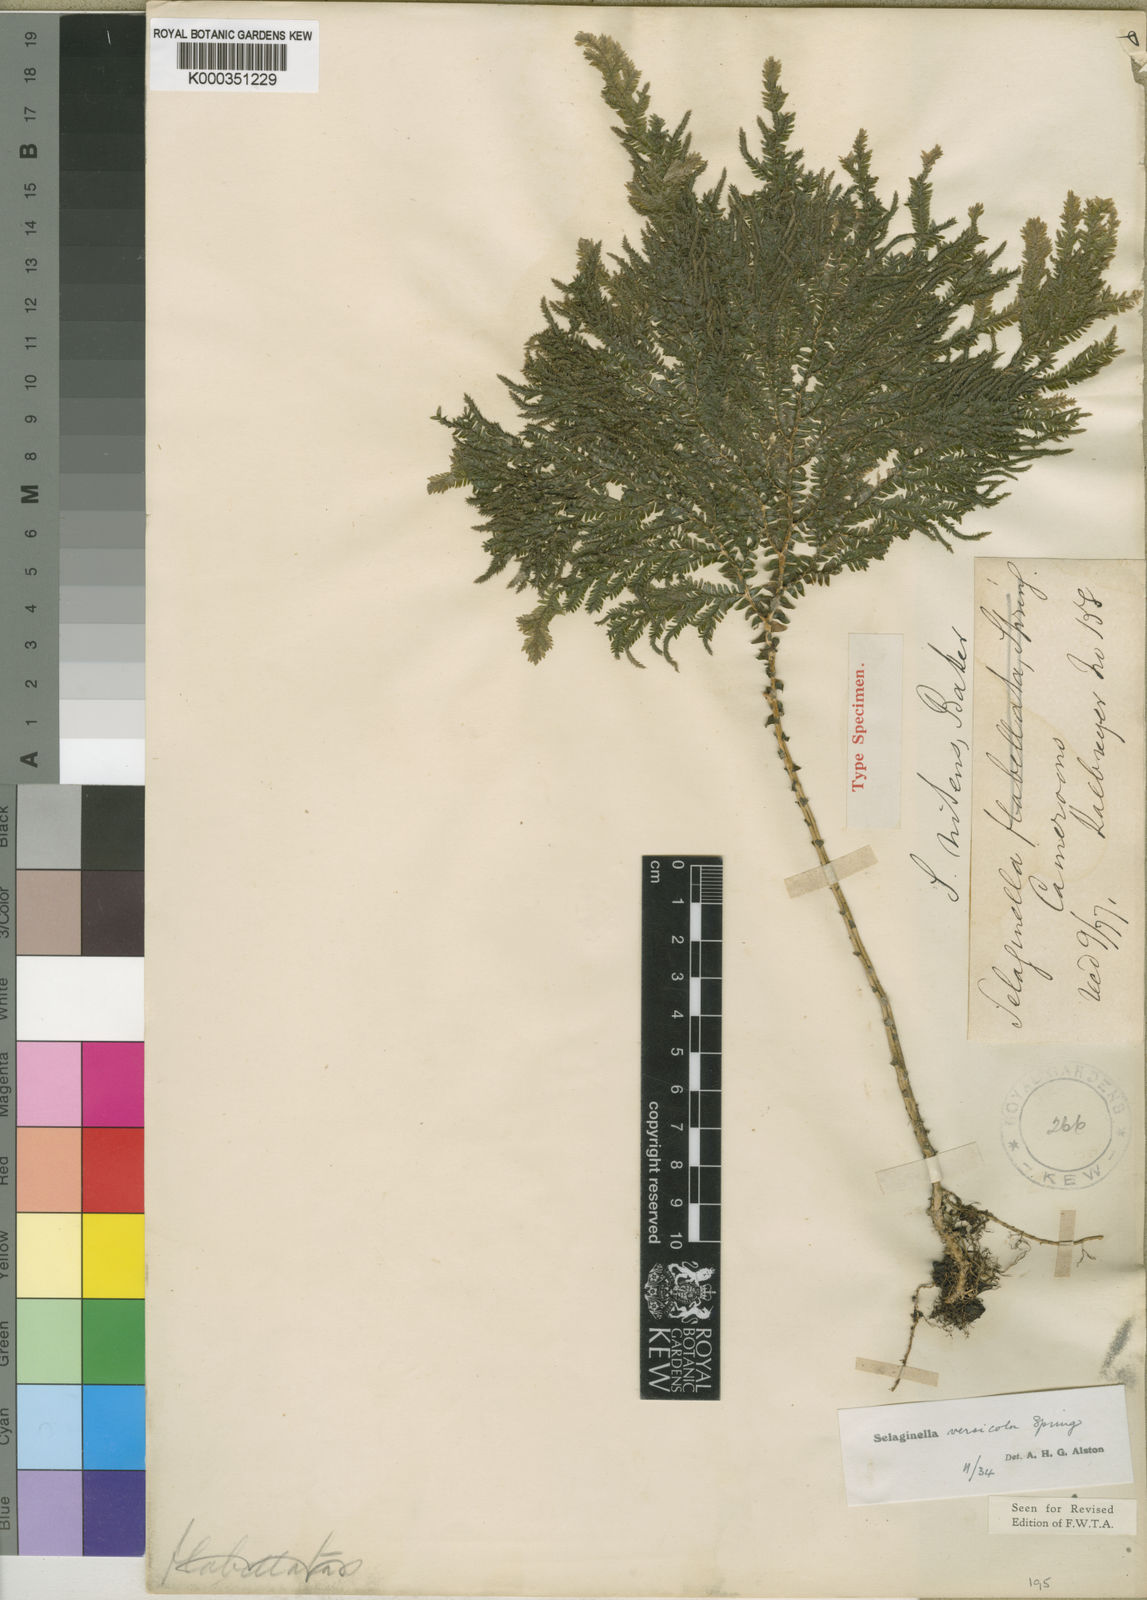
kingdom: Plantae
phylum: Tracheophyta
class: Lycopodiopsida
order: Selaginellales
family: Selaginellaceae
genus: Selaginella
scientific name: Selaginella versicolor
